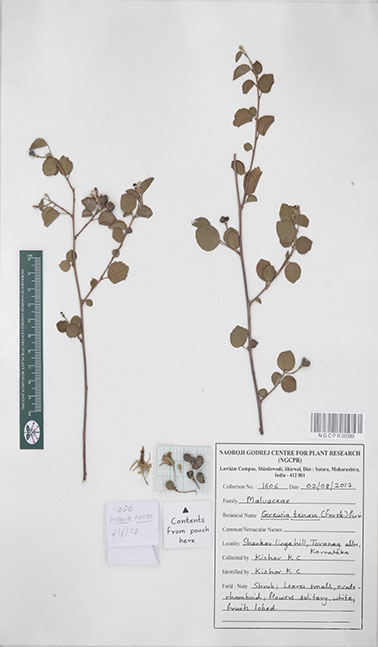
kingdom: Plantae
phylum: Tracheophyta
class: Magnoliopsida
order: Malvales
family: Malvaceae
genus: Grewia
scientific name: Grewia tenax
